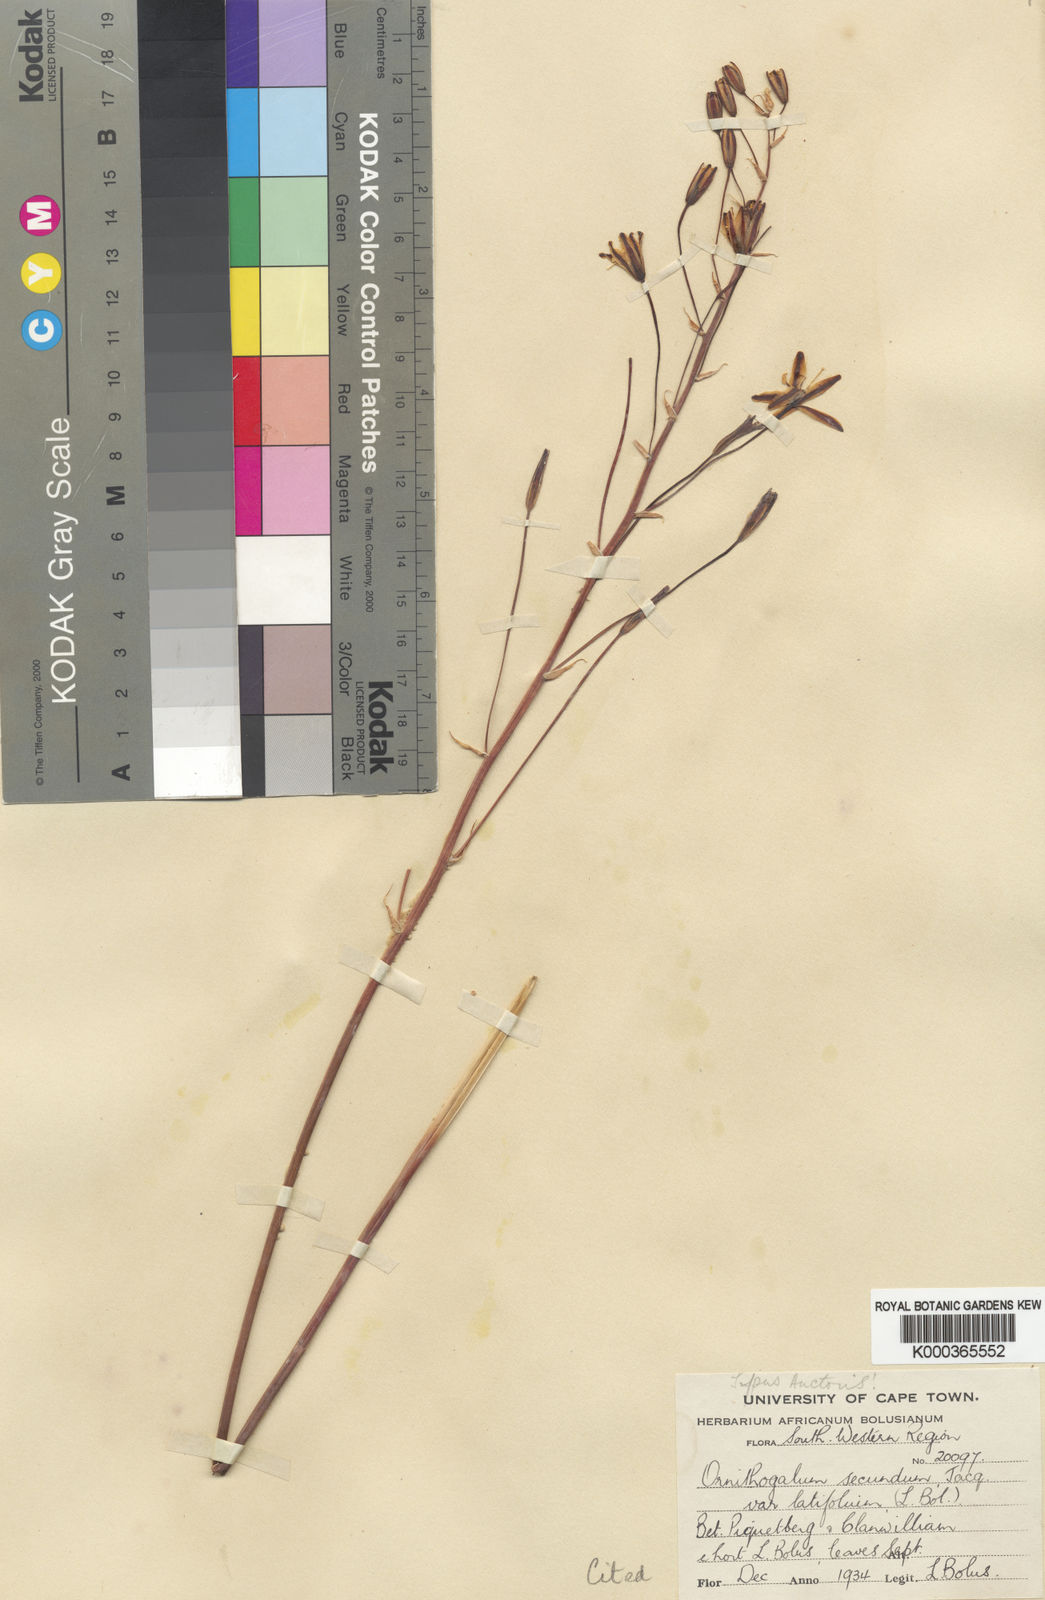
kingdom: Plantae
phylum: Tracheophyta
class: Liliopsida
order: Asparagales
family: Asparagaceae
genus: Albuca
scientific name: Albuca secunda
